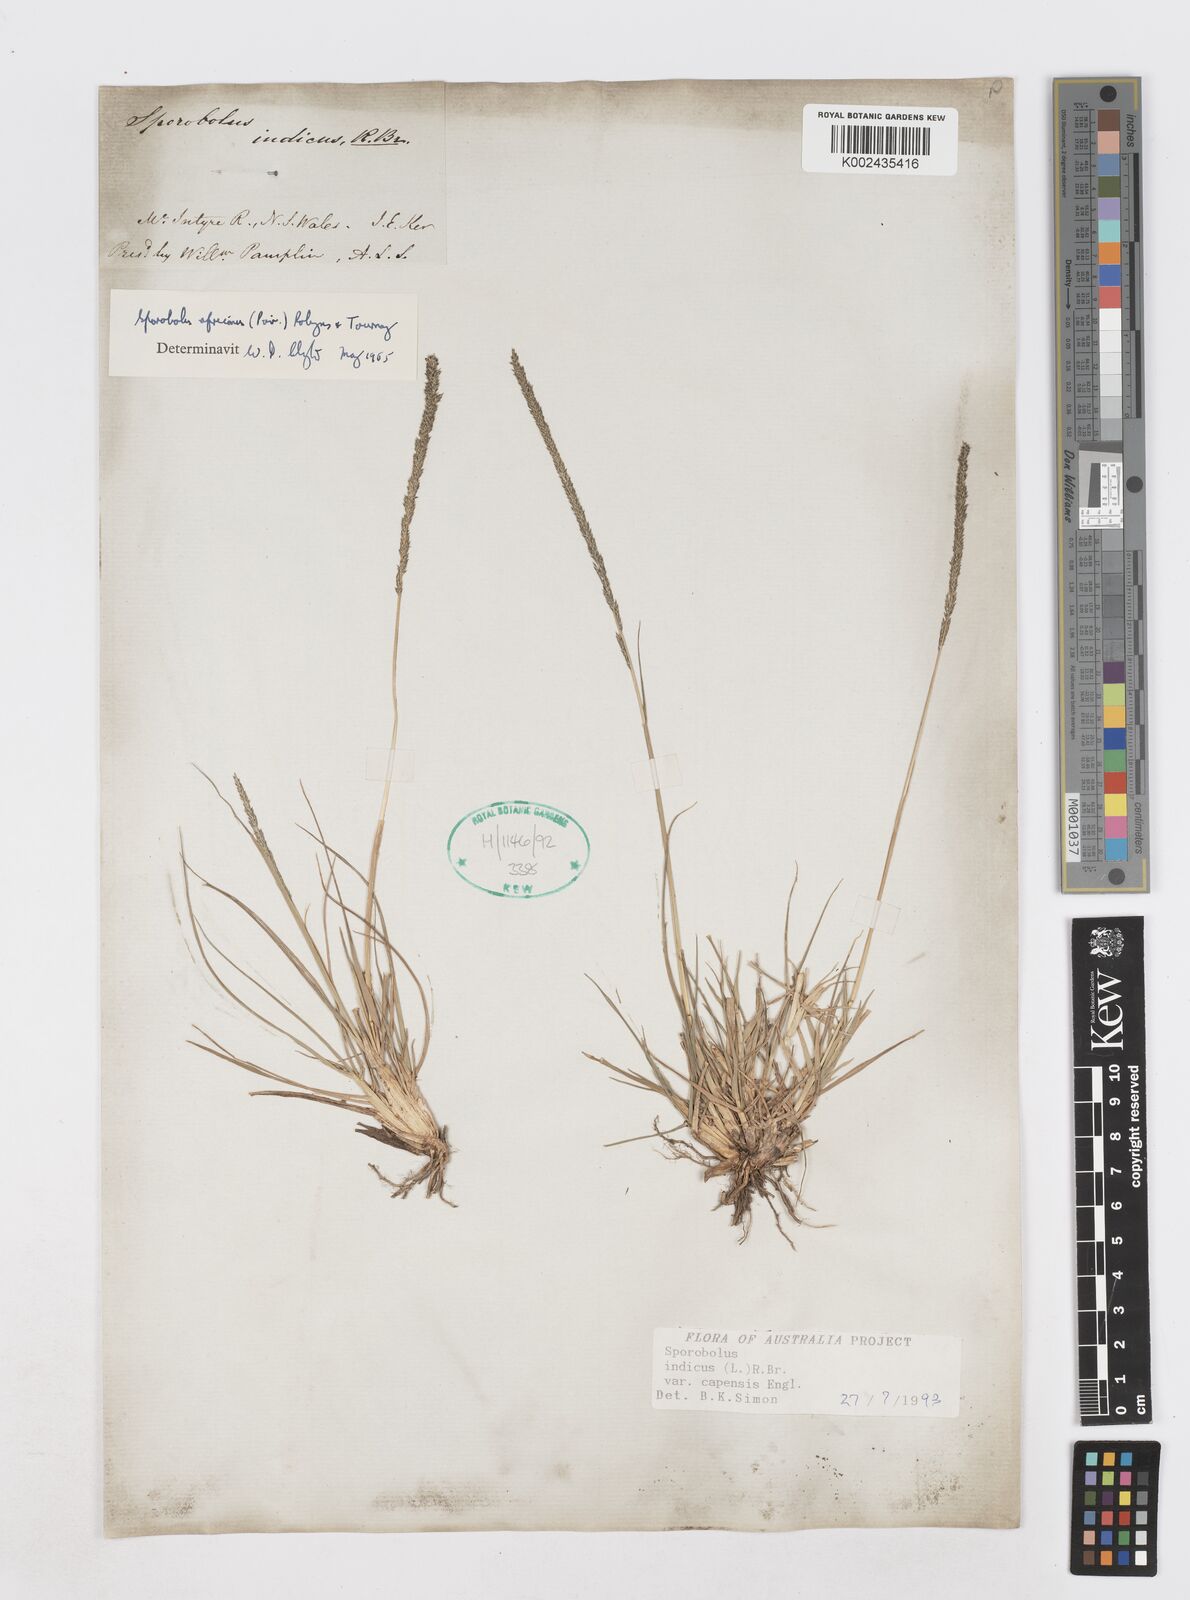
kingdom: Plantae
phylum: Tracheophyta
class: Liliopsida
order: Poales
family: Poaceae
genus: Sporobolus
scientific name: Sporobolus africanus
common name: African dropseed
